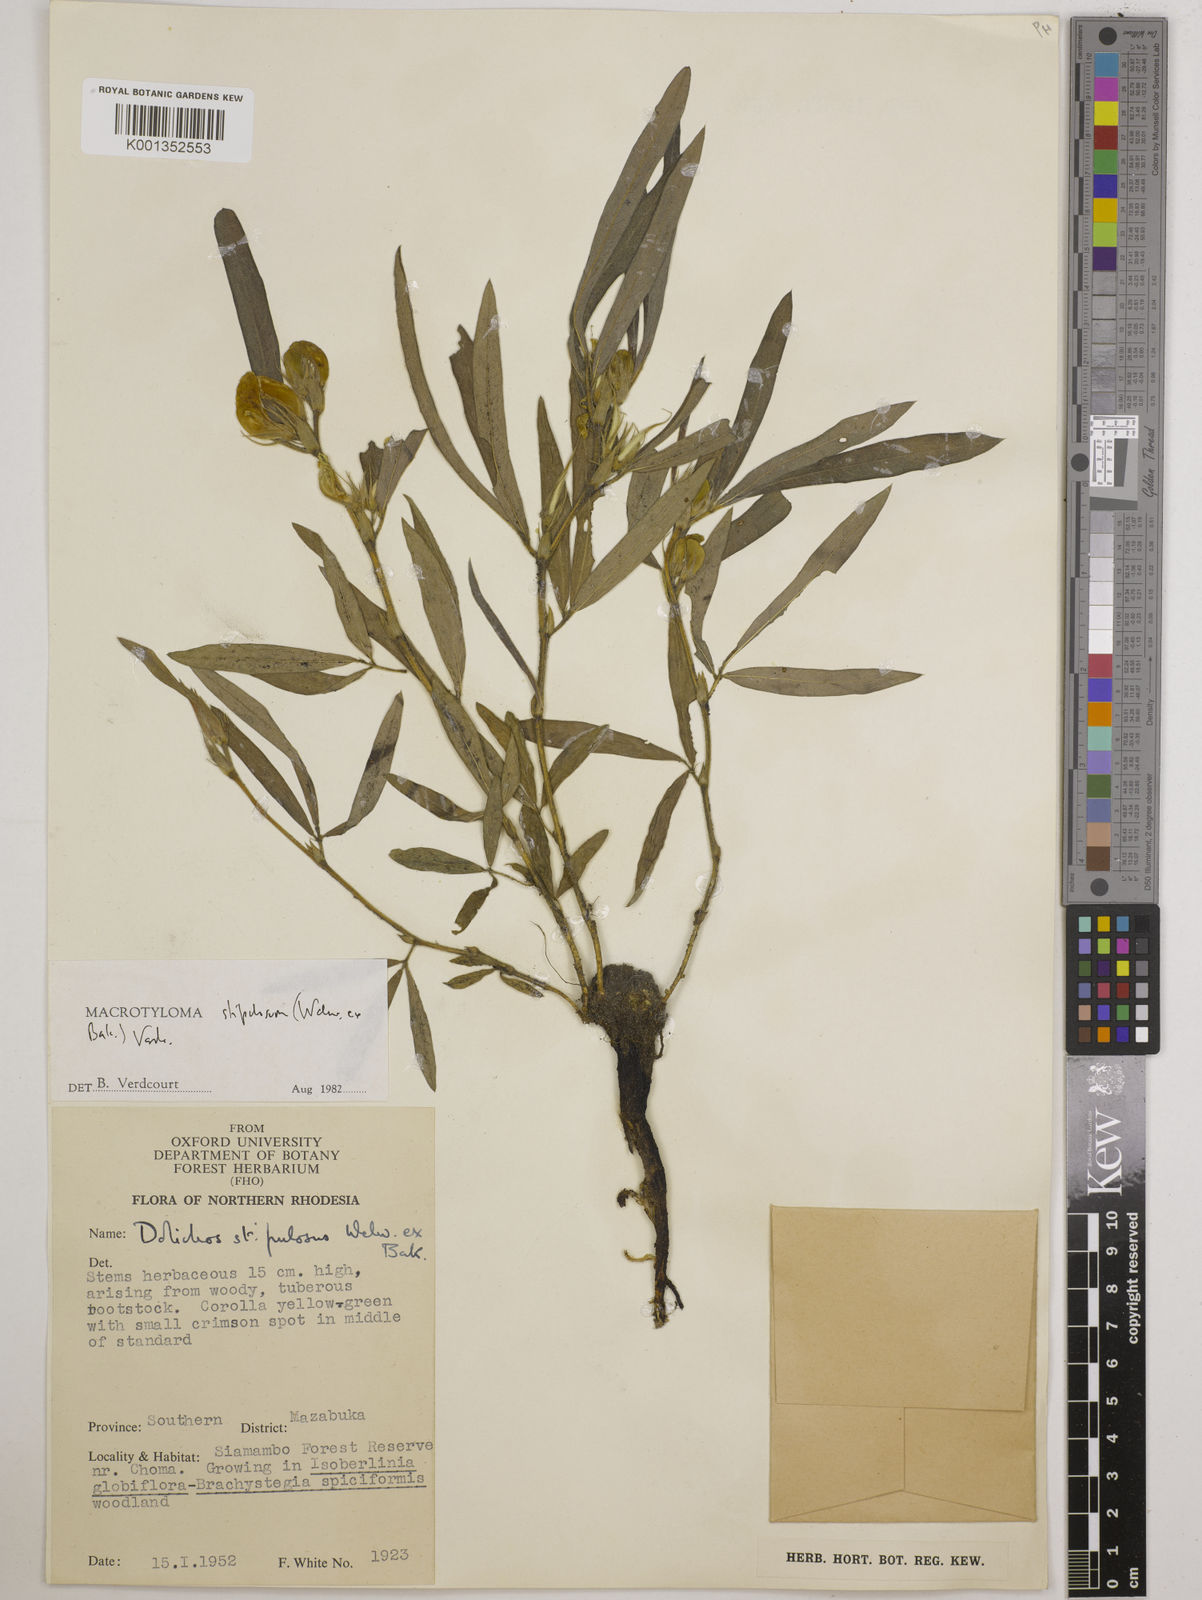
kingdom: Plantae
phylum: Tracheophyta
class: Magnoliopsida
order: Fabales
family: Fabaceae
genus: Macrotyloma
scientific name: Macrotyloma stipulosum
